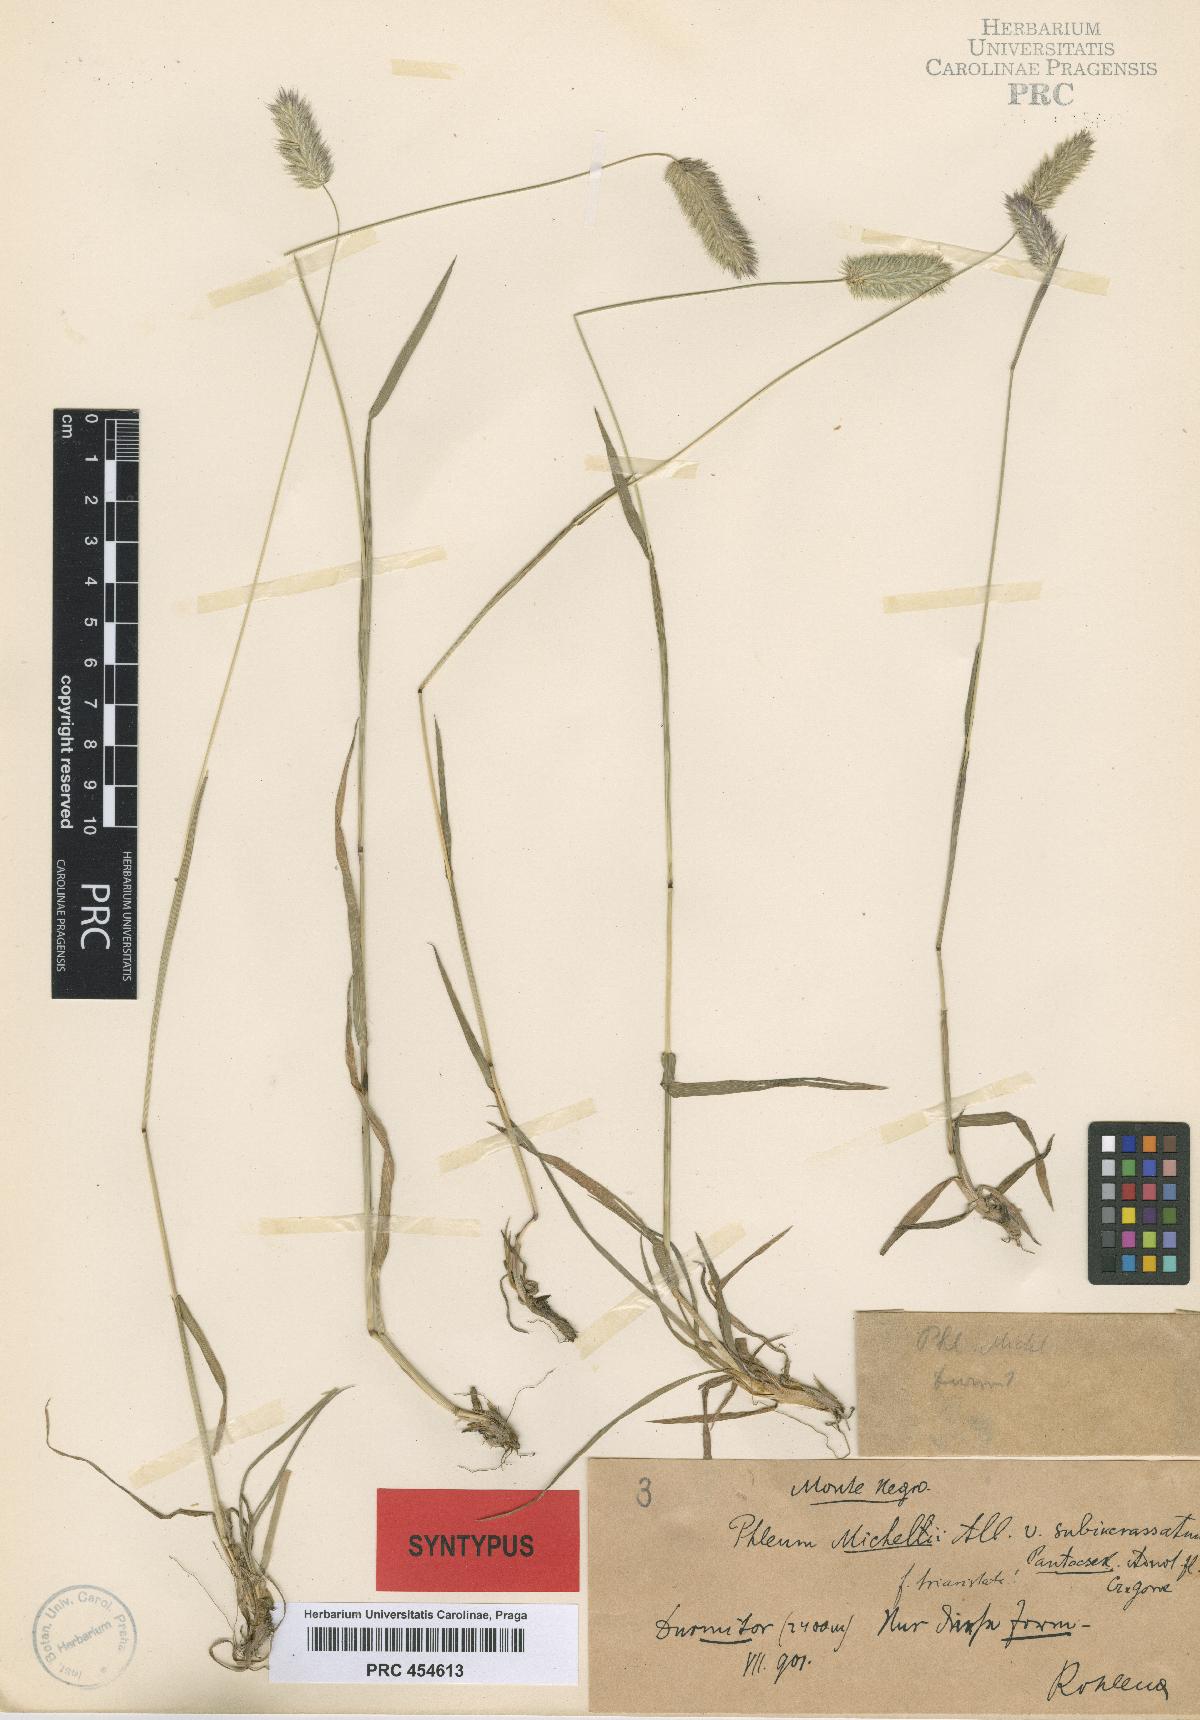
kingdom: Plantae
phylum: Tracheophyta
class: Liliopsida
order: Poales
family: Poaceae
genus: Phleum
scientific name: Phleum hirsutum
